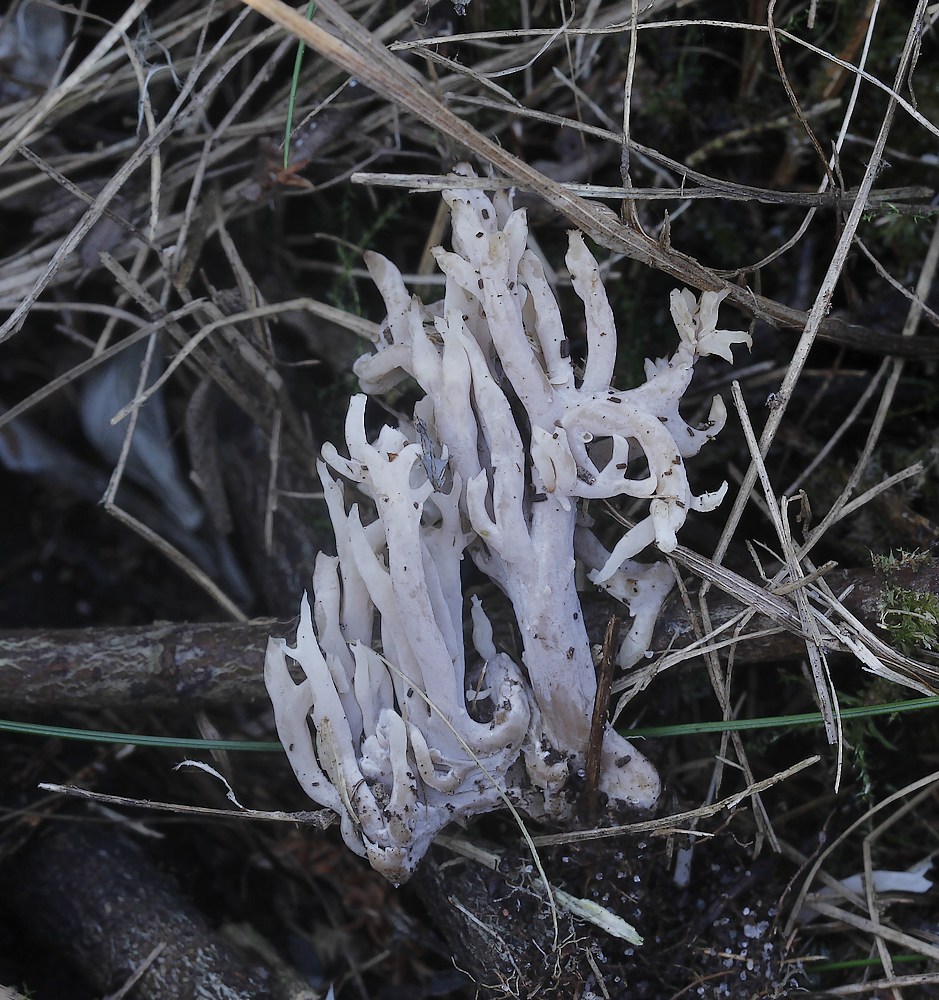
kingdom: Plantae
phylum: Bryophyta
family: Agaricomycetidae
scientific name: Agaricomycetidae
